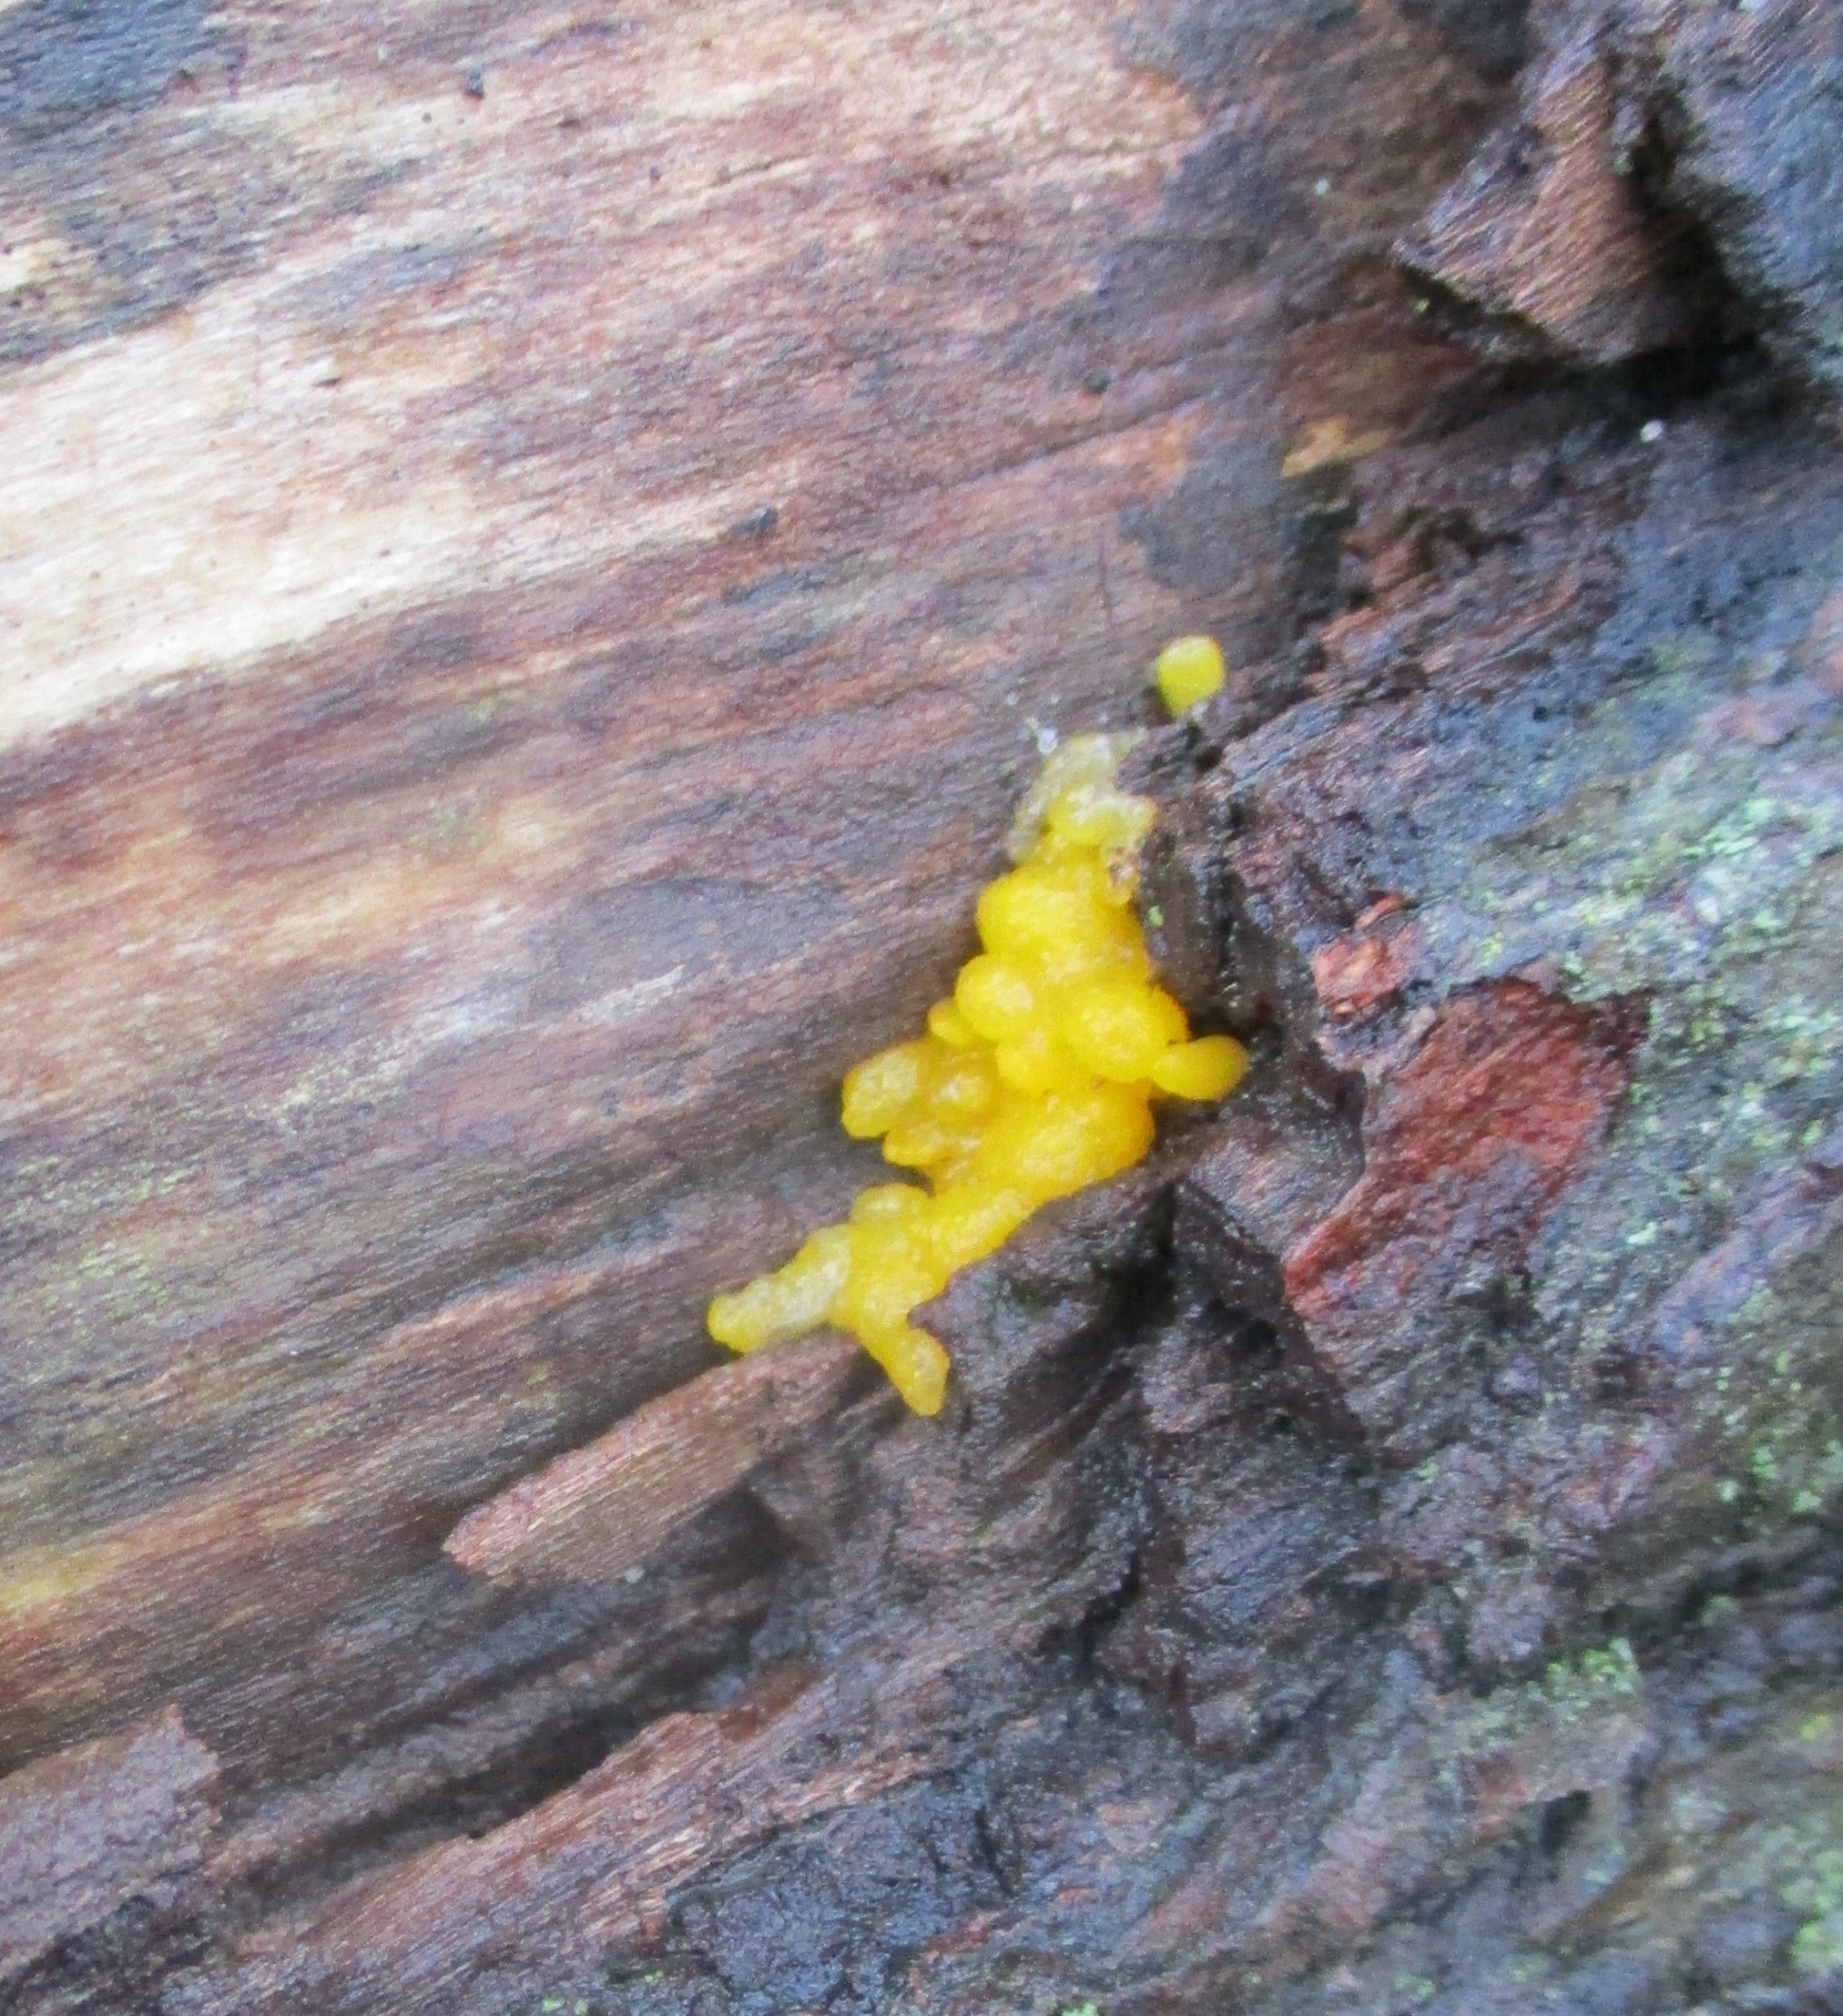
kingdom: Fungi
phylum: Basidiomycota
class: Tremellomycetes
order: Tremellales
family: Tremellaceae
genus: Tremella
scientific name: Tremella mesenterica
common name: Gul bævresvamp
